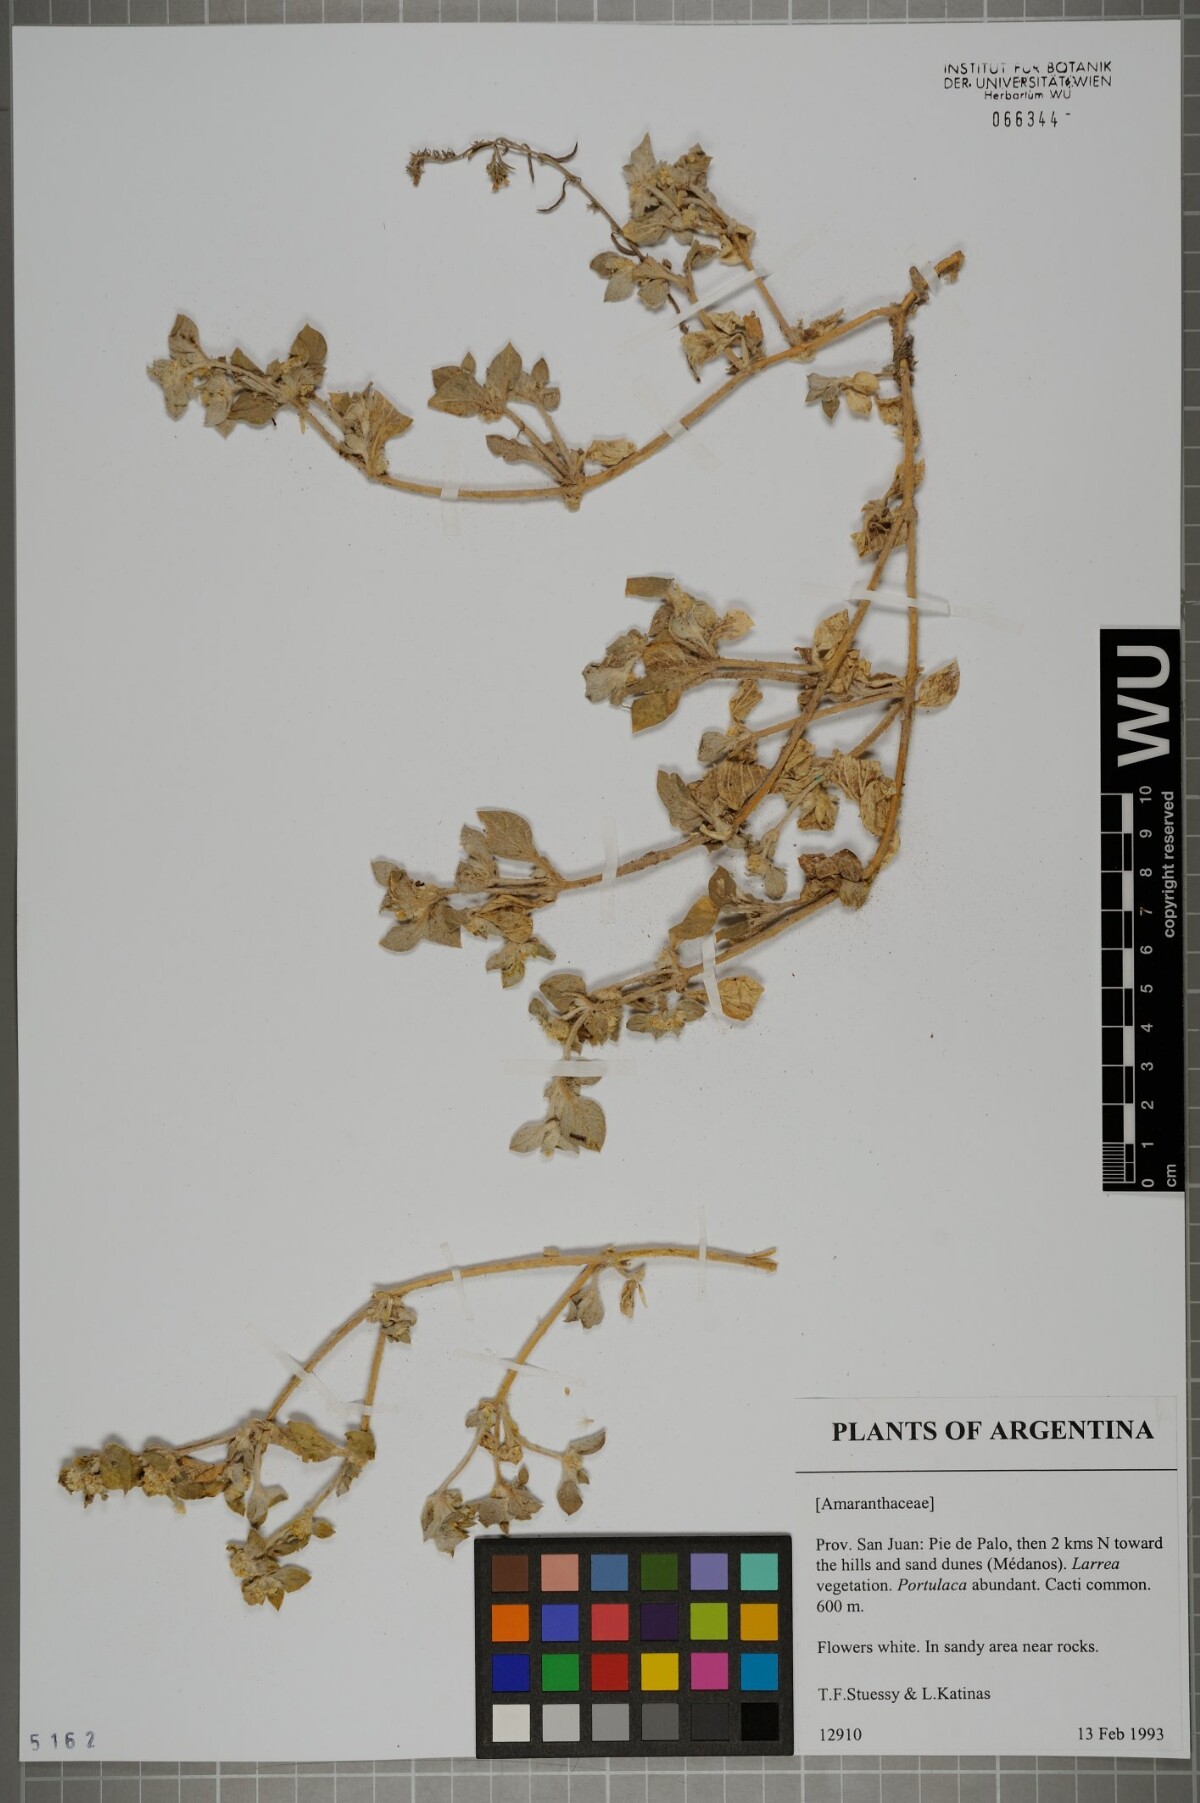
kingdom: Plantae
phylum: Tracheophyta
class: Magnoliopsida
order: Caryophyllales
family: Amaranthaceae
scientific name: Amaranthaceae
